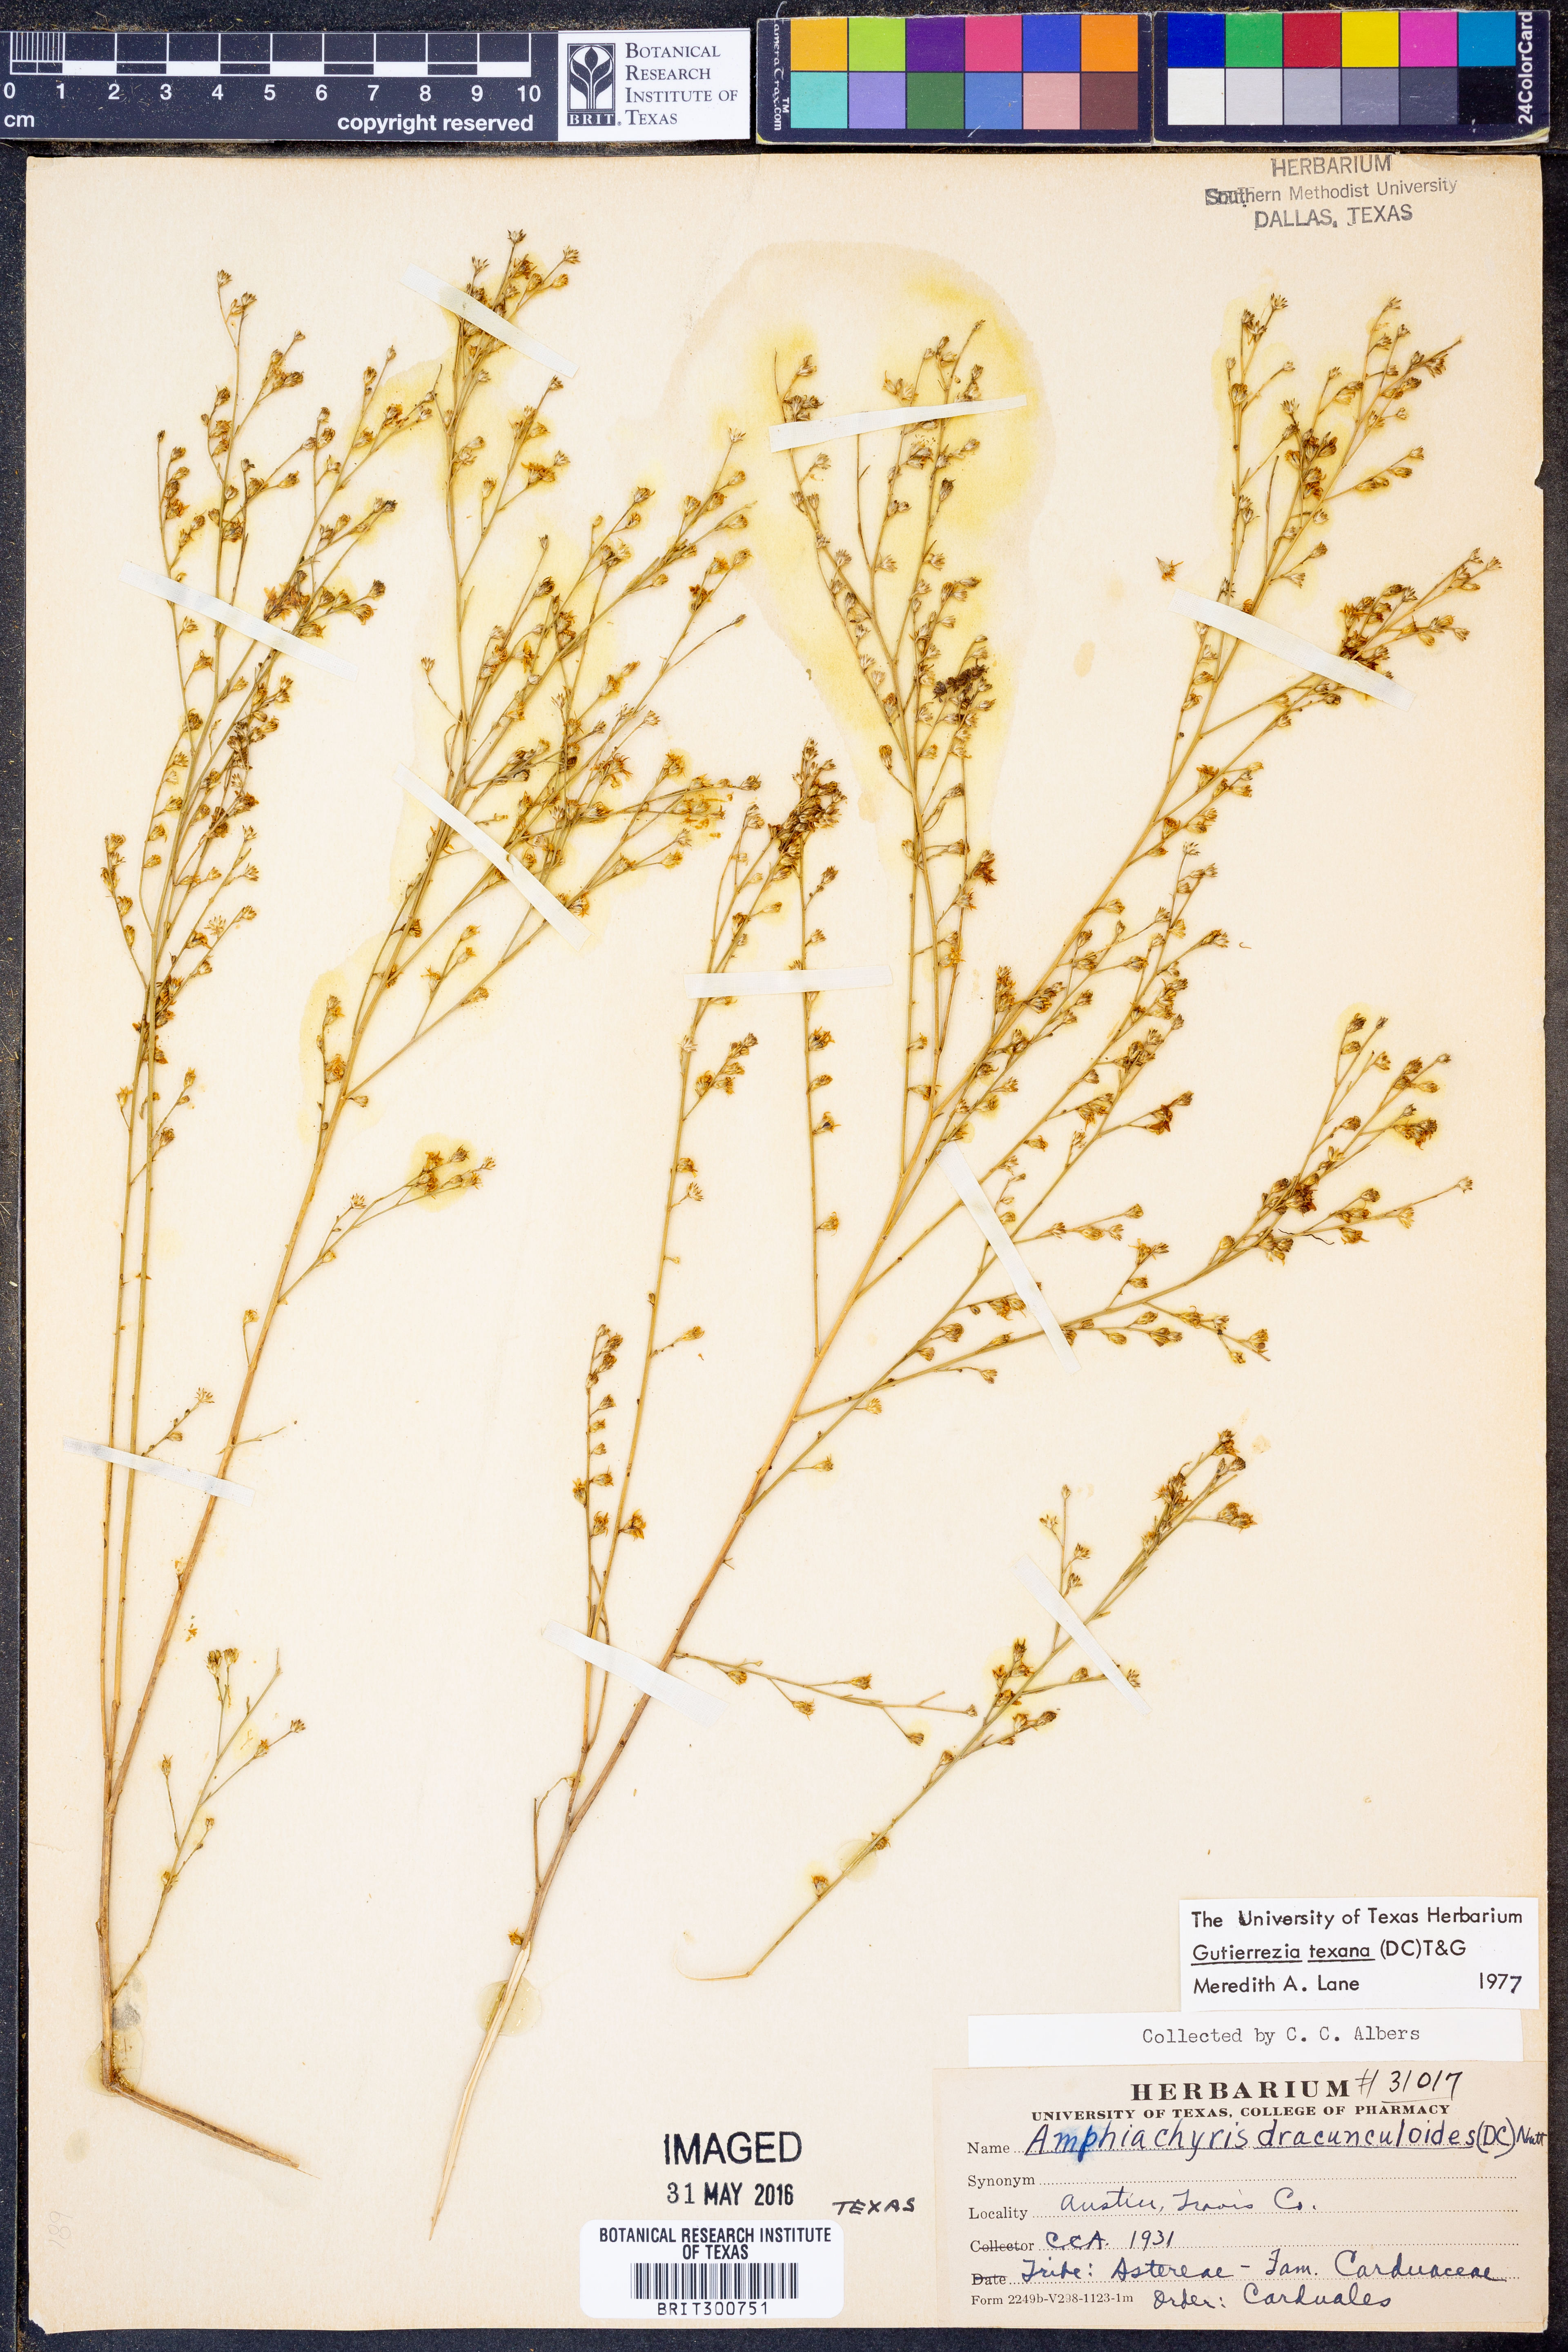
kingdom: Plantae
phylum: Tracheophyta
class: Magnoliopsida
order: Asterales
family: Asteraceae
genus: Gutierrezia
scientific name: Gutierrezia texana
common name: Texas snakeweed
